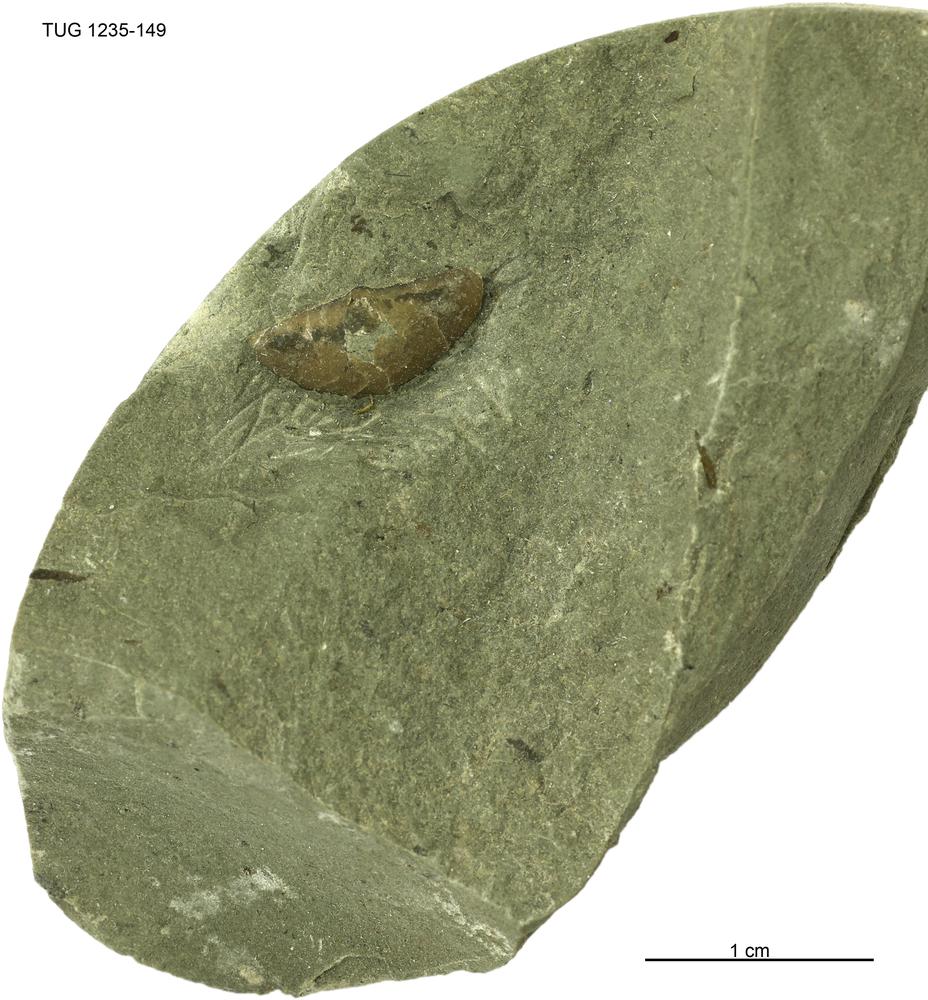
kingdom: Animalia
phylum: Brachiopoda
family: Oldhaminidae
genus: Eoplectodonta
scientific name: Eoplectodonta
